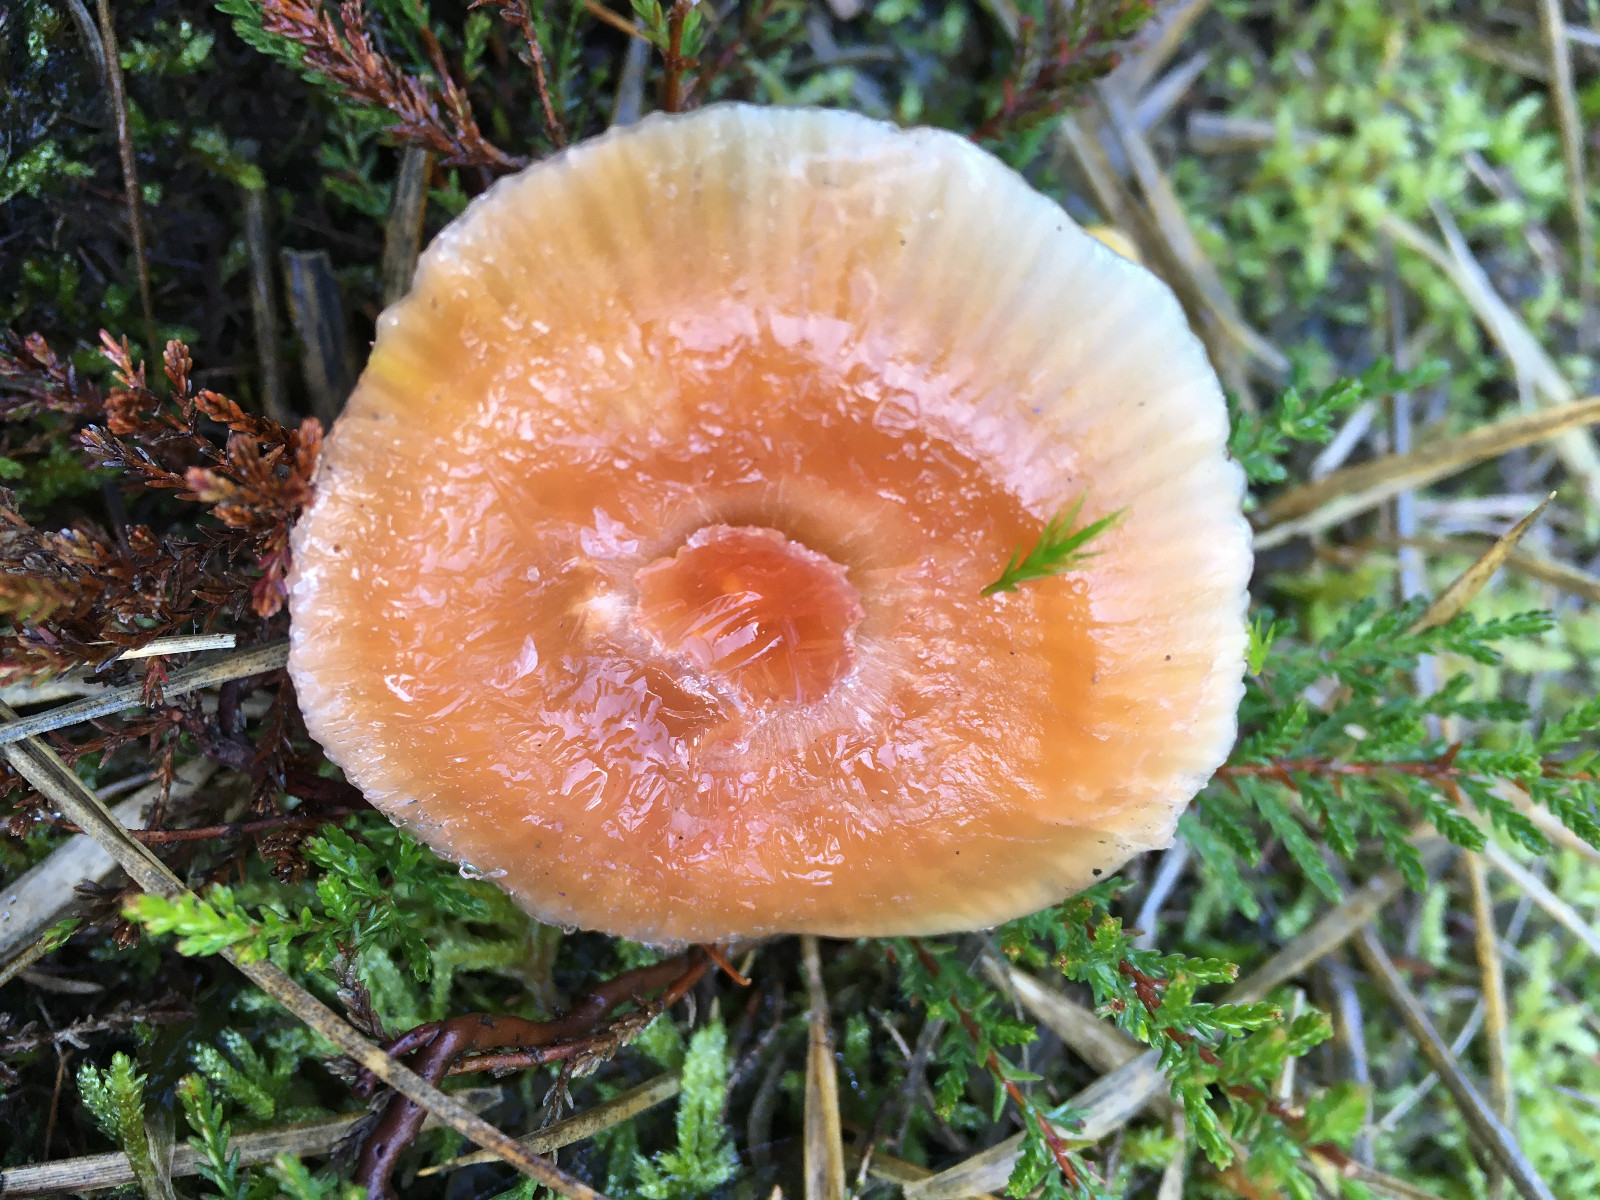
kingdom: Fungi
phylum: Basidiomycota
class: Agaricomycetes
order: Agaricales
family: Hygrophoraceae
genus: Gliophorus
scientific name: Gliophorus laetus
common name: brusk-vokshat
